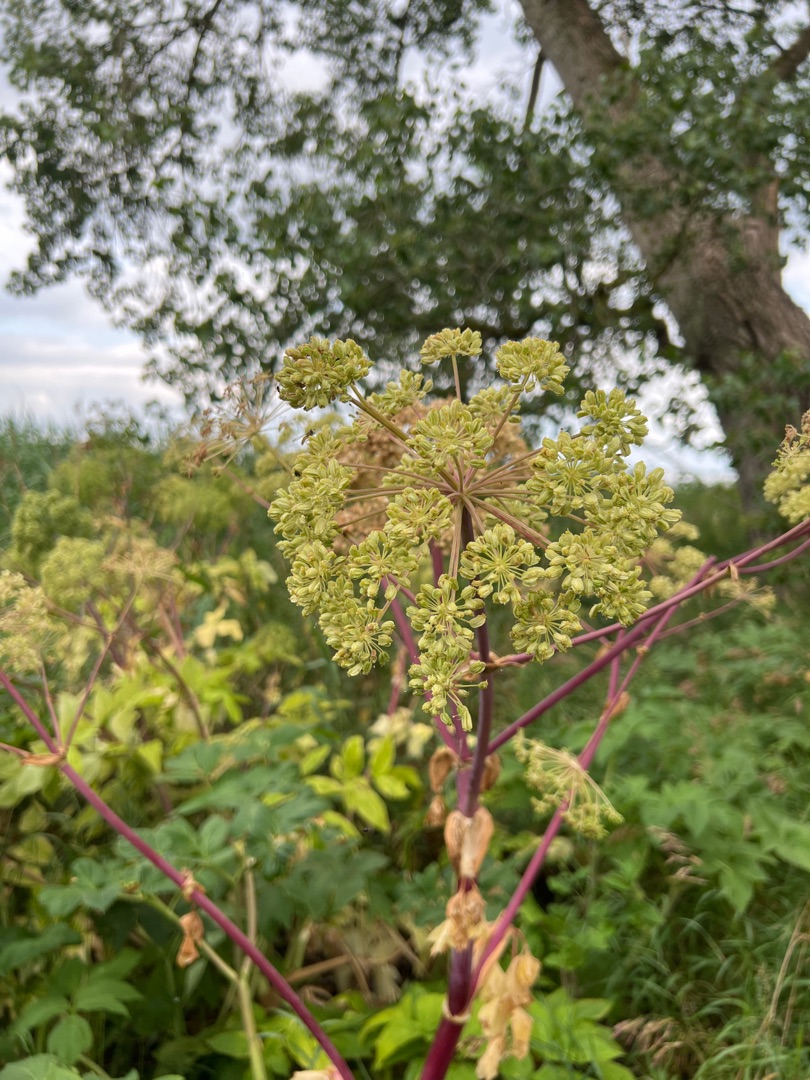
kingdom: Plantae
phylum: Tracheophyta
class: Magnoliopsida
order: Apiales
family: Apiaceae
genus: Angelica
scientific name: Angelica archangelica
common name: Kvan
